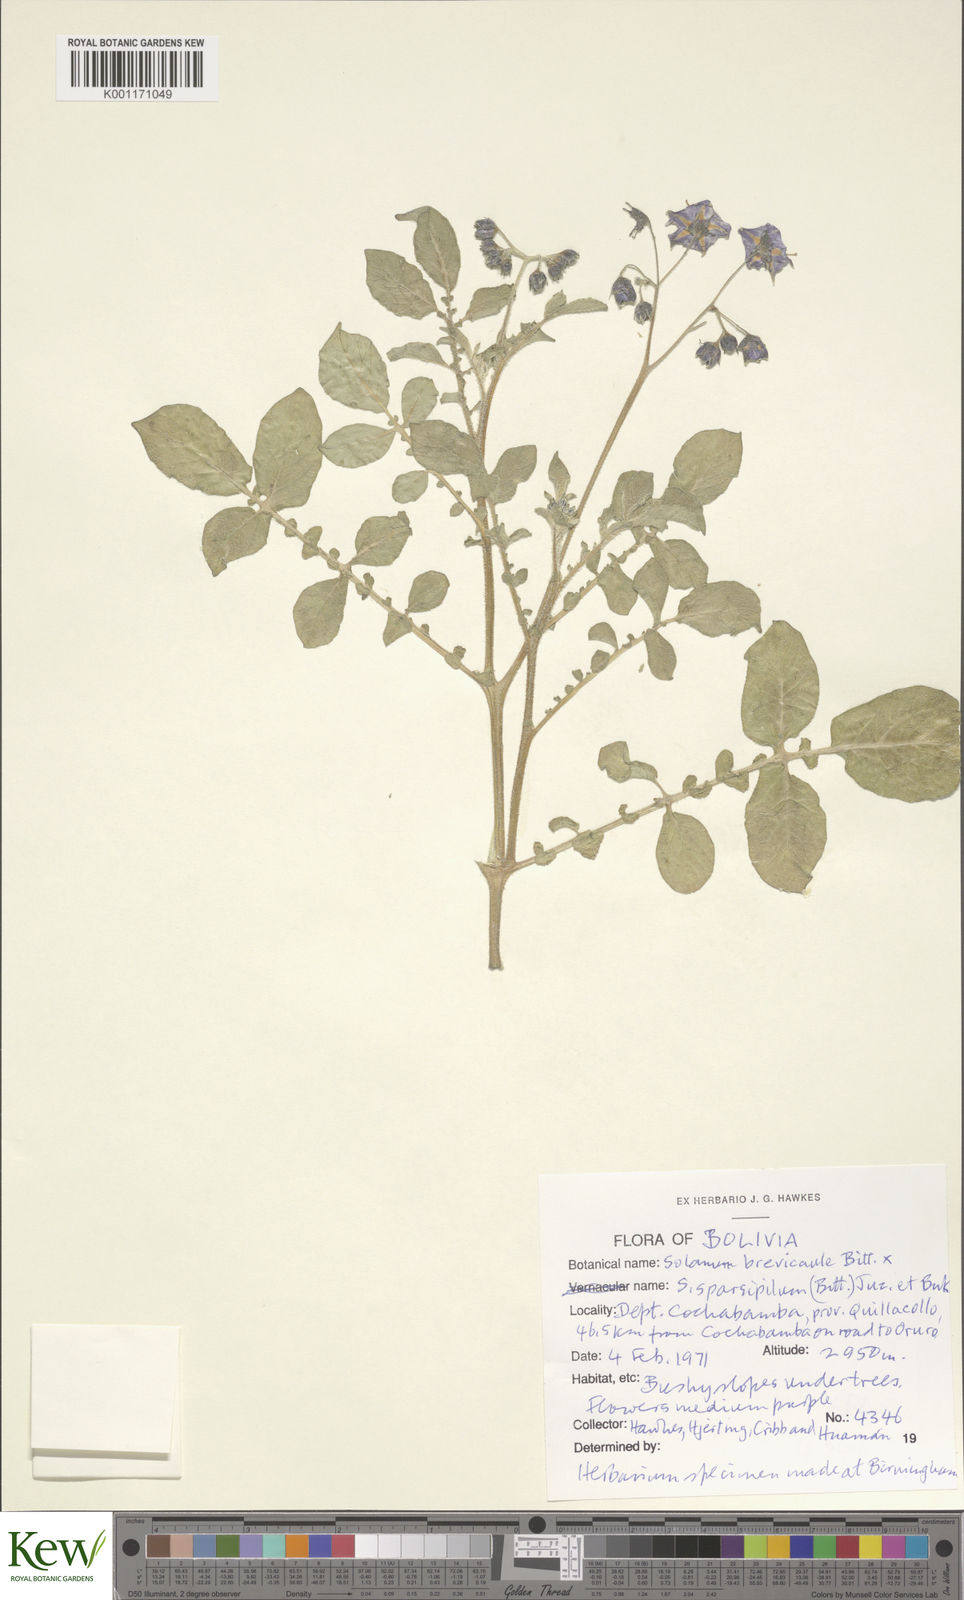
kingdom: Plantae
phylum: Tracheophyta
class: Magnoliopsida
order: Solanales
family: Solanaceae
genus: Solanum
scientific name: Solanum brevicaule
